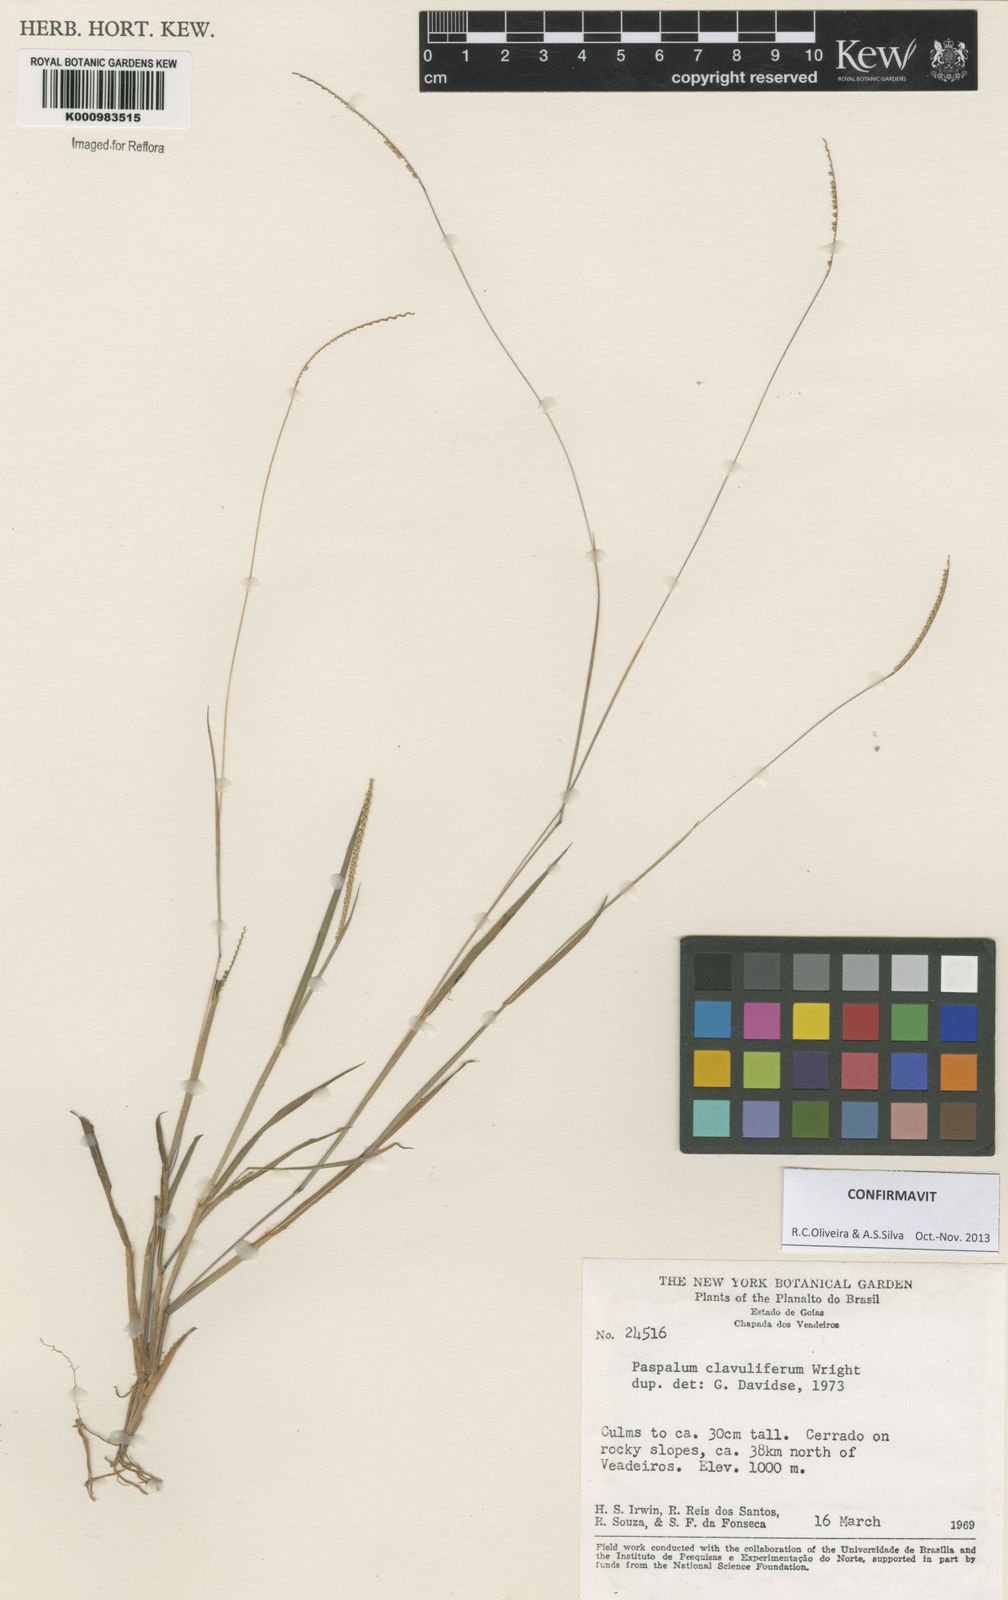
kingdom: Plantae
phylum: Tracheophyta
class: Liliopsida
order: Poales
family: Poaceae
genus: Paspalum
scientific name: Paspalum clavuliferum
